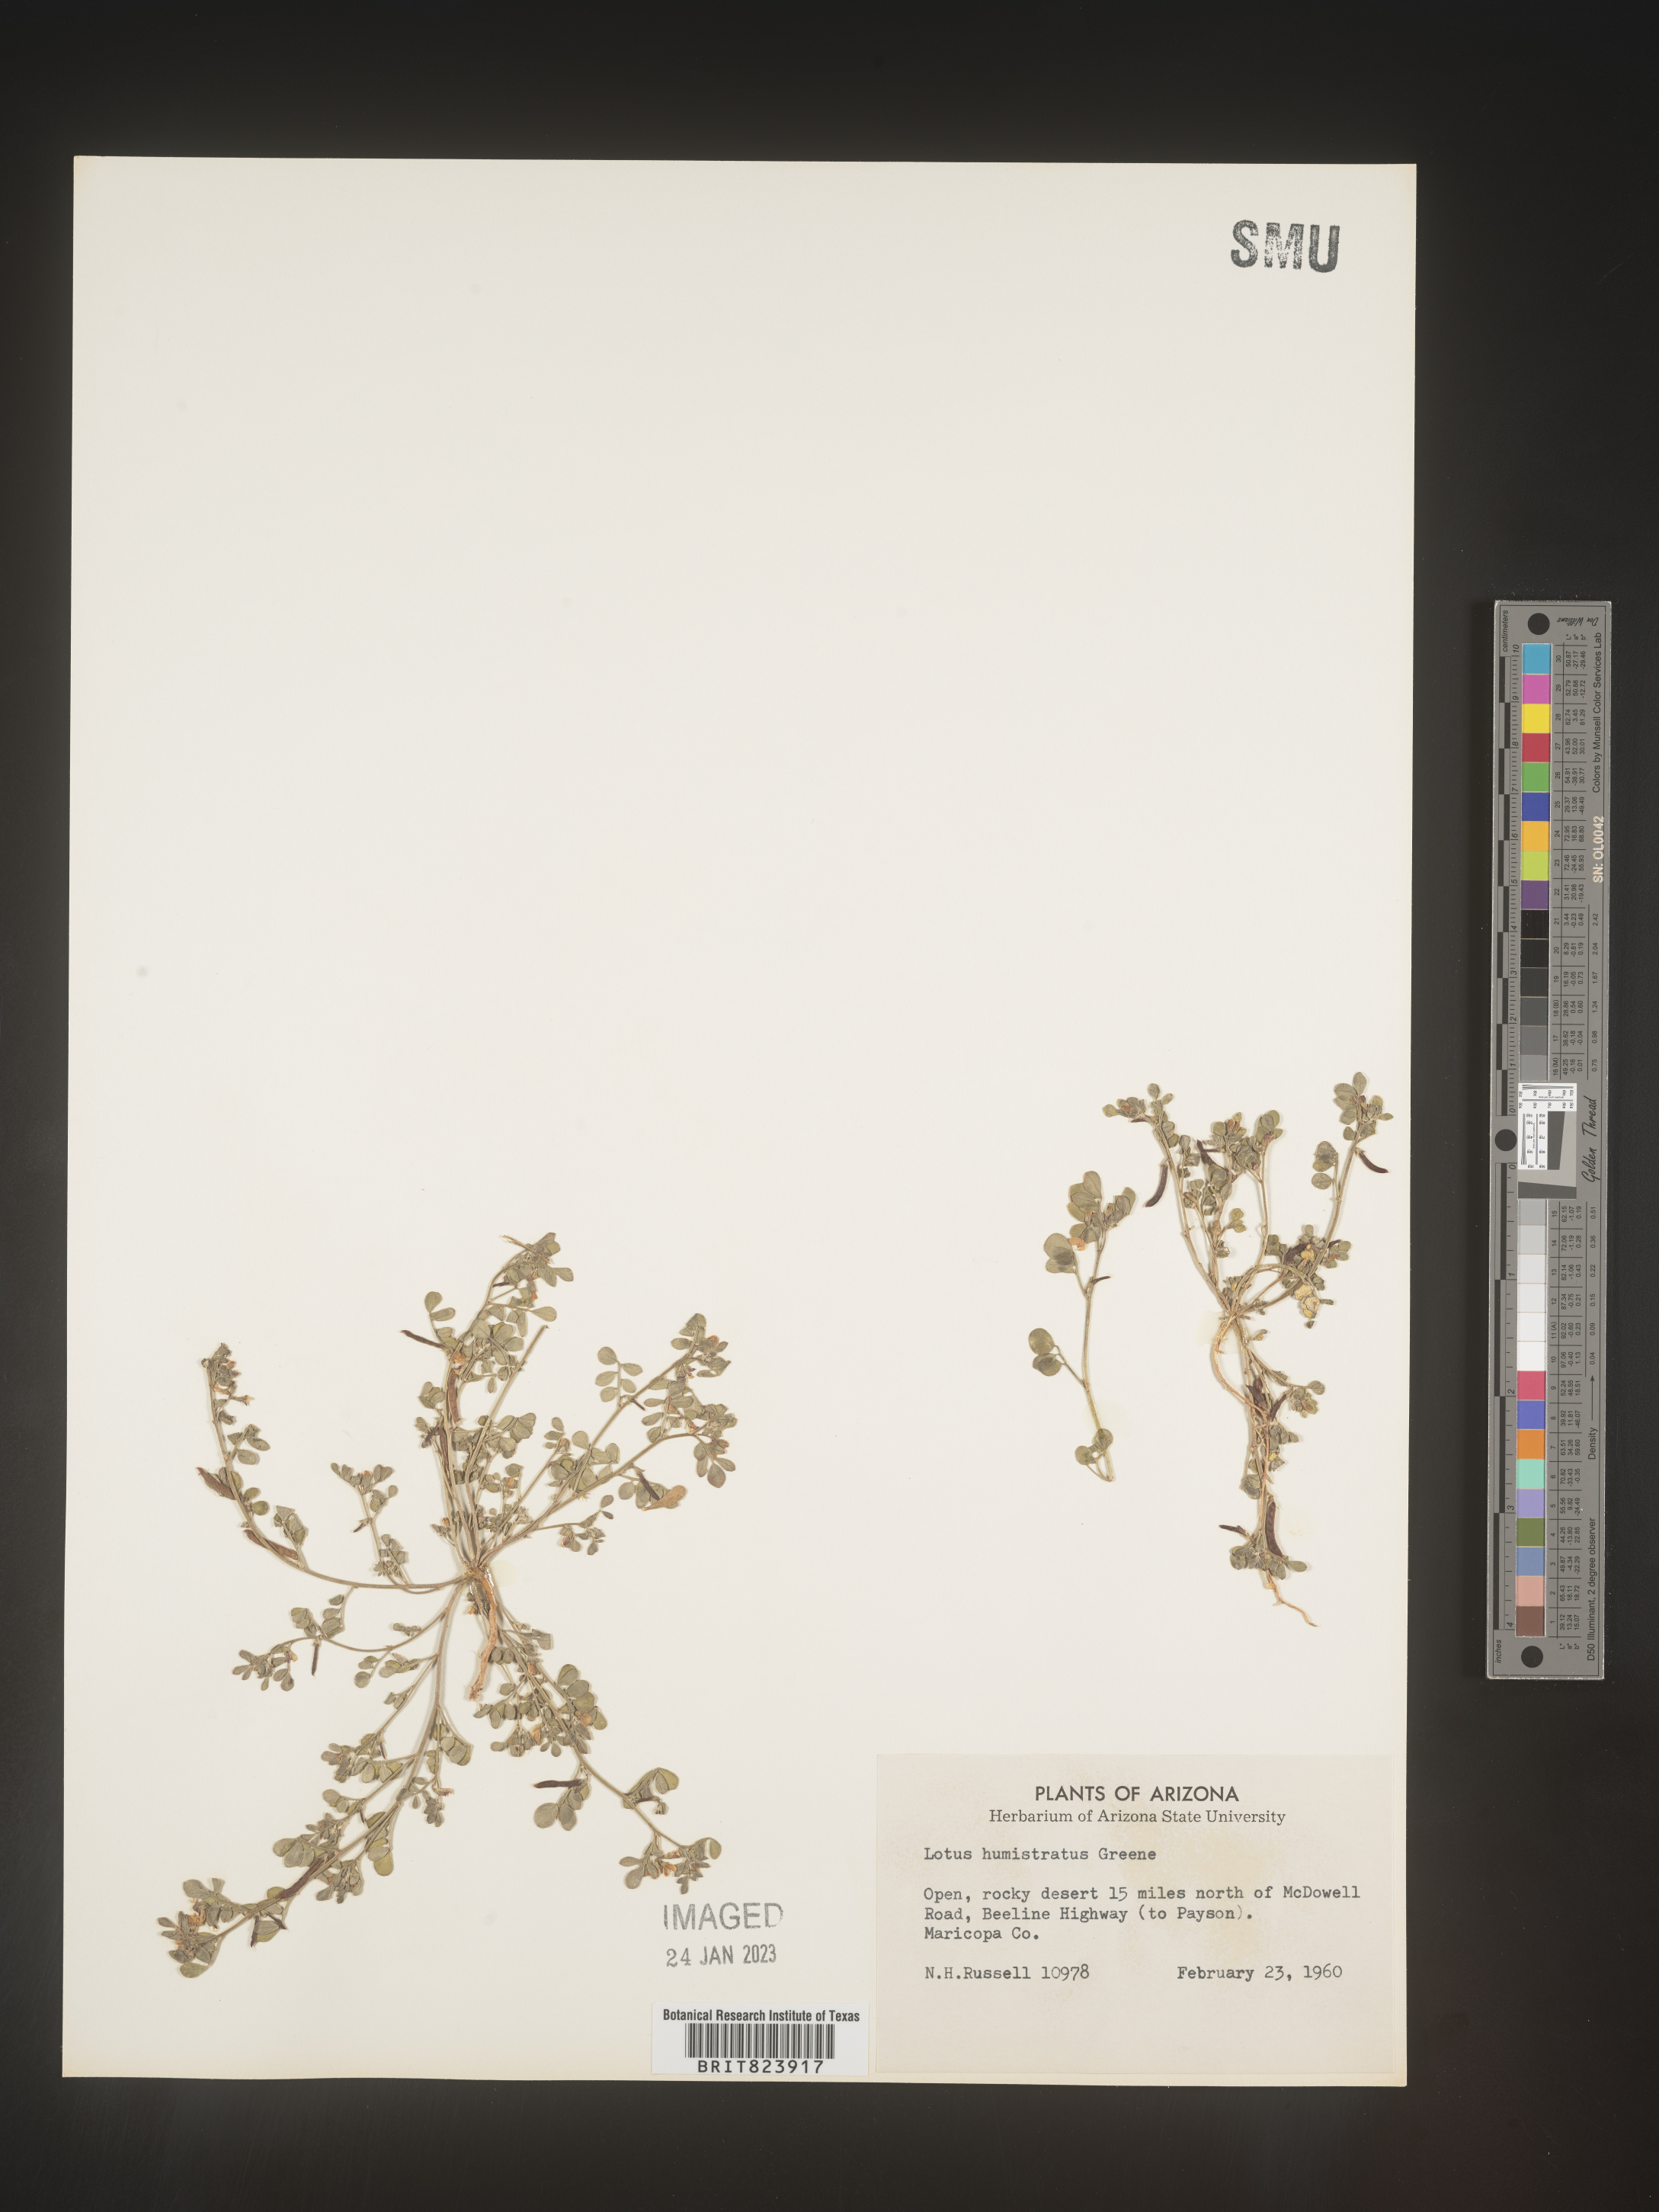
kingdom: Plantae
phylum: Tracheophyta
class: Magnoliopsida
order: Fabales
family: Fabaceae
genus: Acmispon
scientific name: Acmispon brachycarpus
